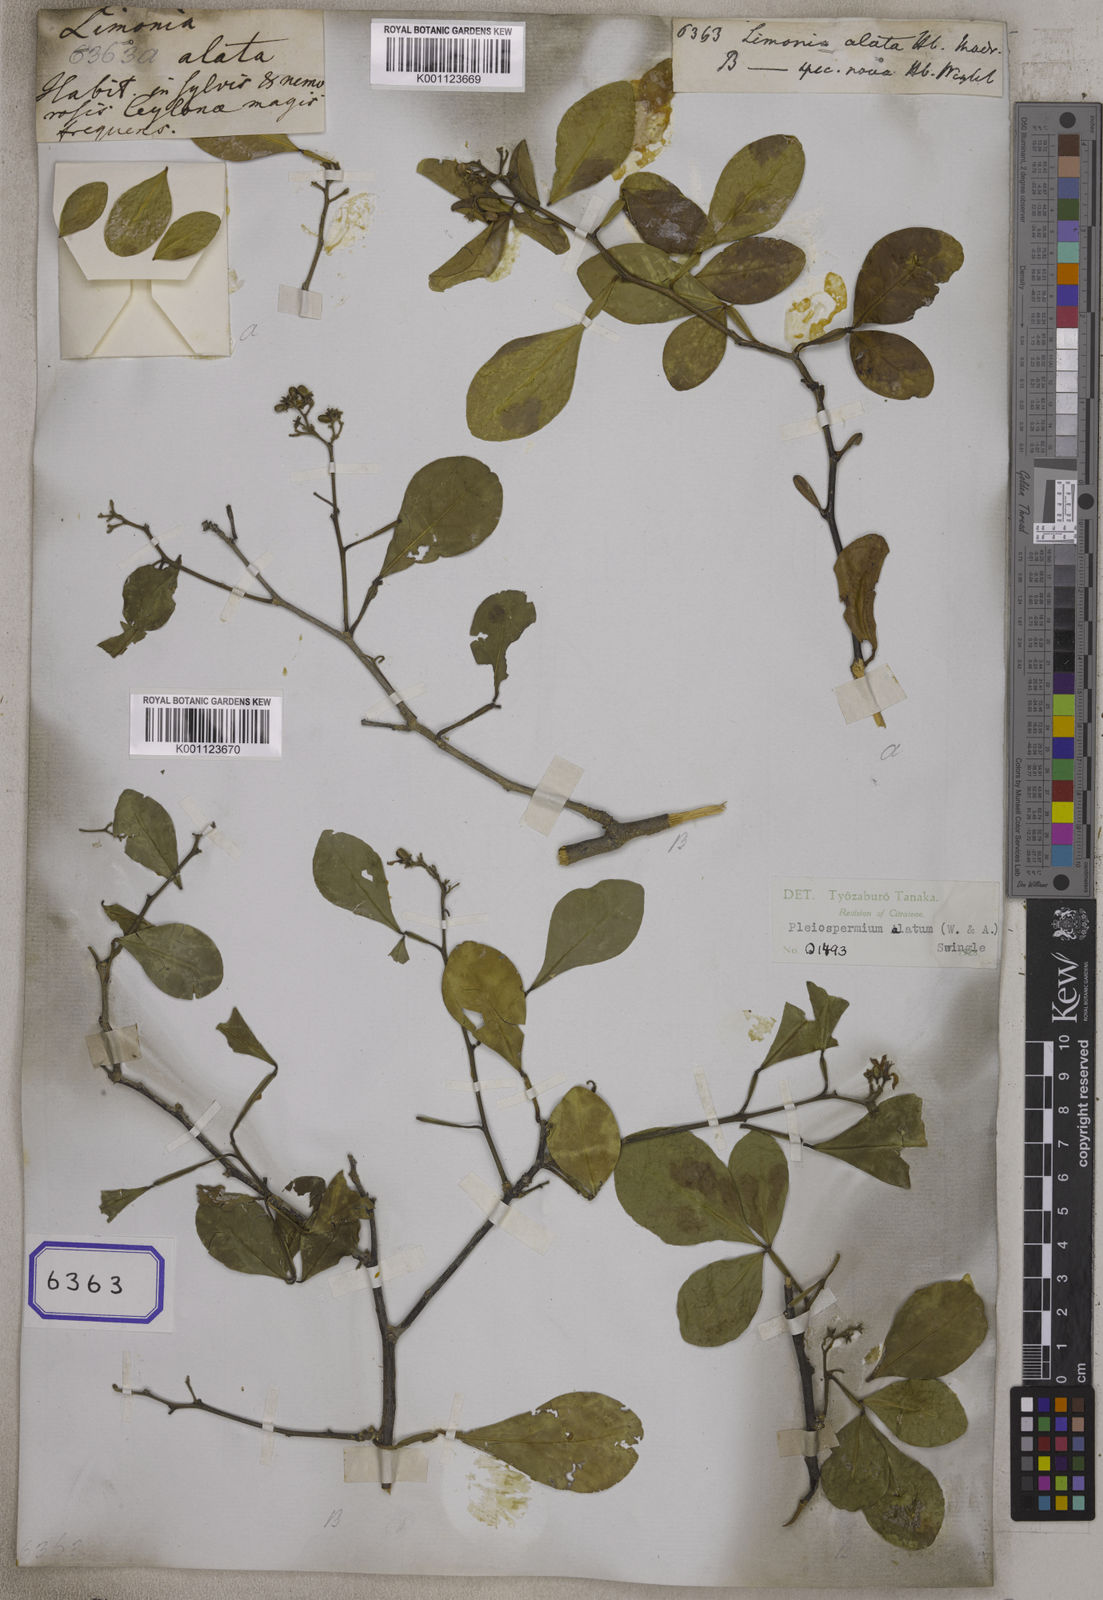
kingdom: Plantae
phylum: Tracheophyta
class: Magnoliopsida
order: Sapindales
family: Rutaceae
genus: Limonia
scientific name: Limonia
